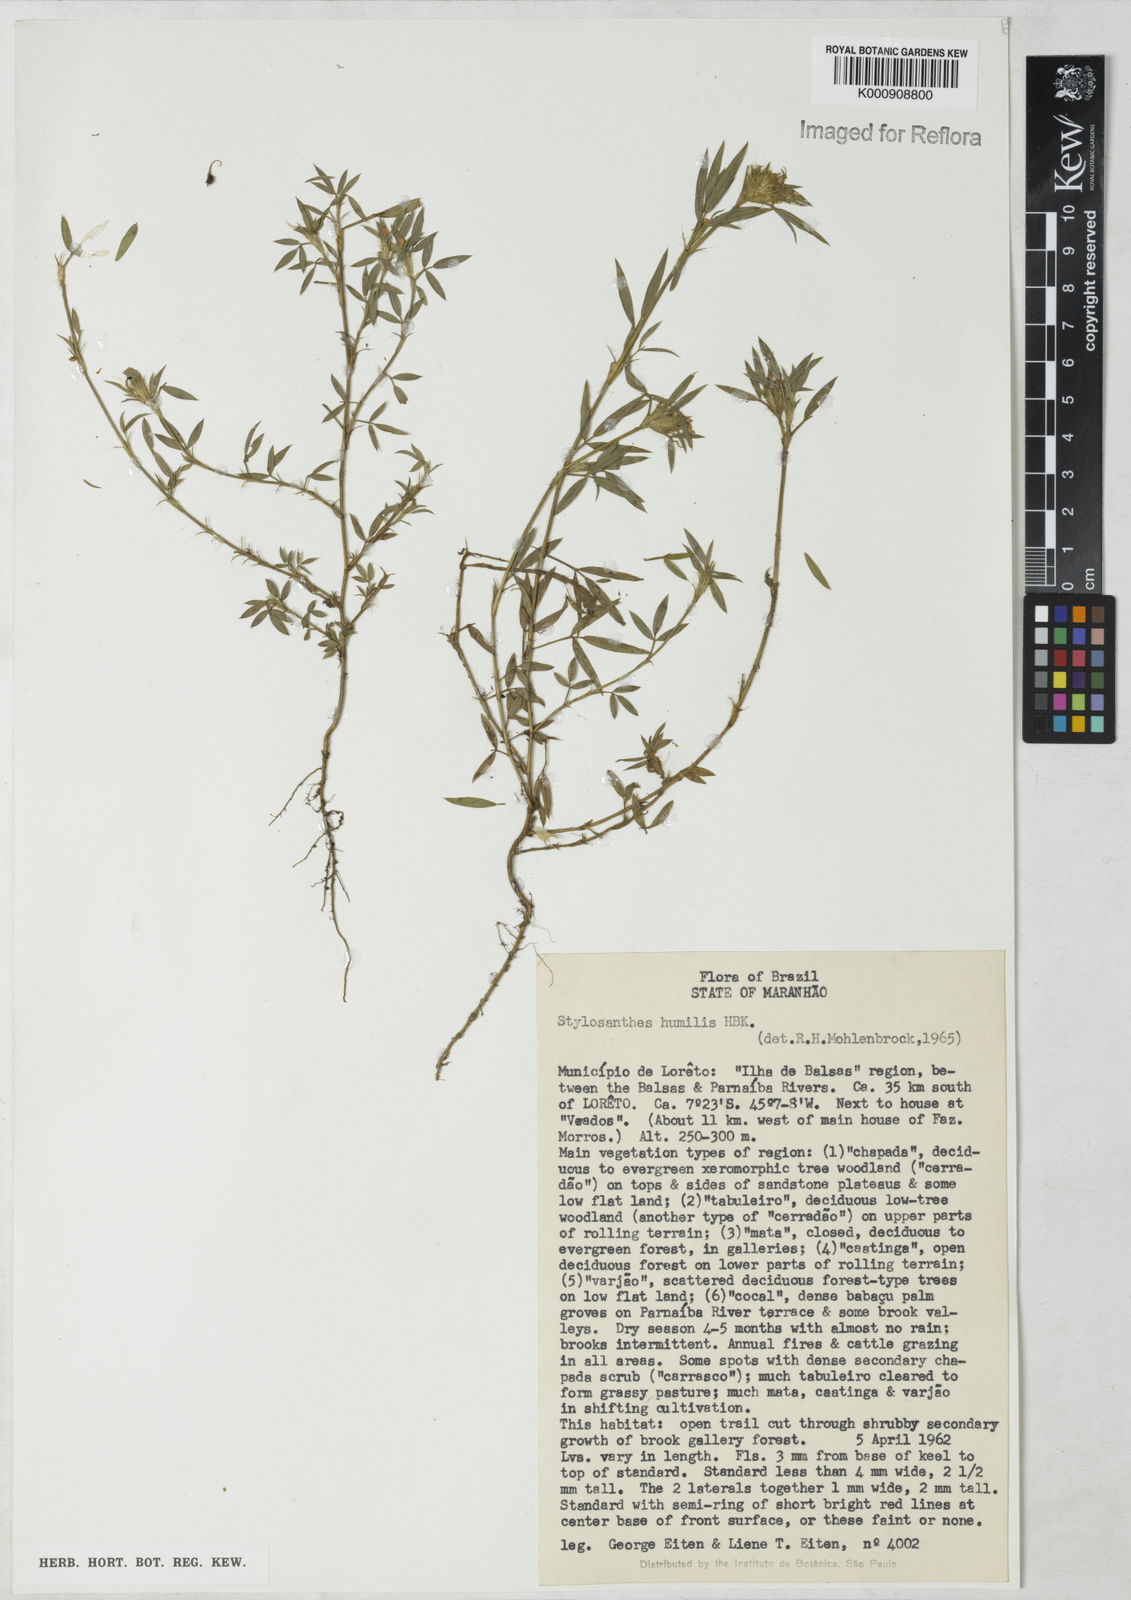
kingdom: Plantae
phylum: Tracheophyta
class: Magnoliopsida
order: Fabales
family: Fabaceae
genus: Stylosanthes
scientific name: Stylosanthes humilis
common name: Townsville stylo
